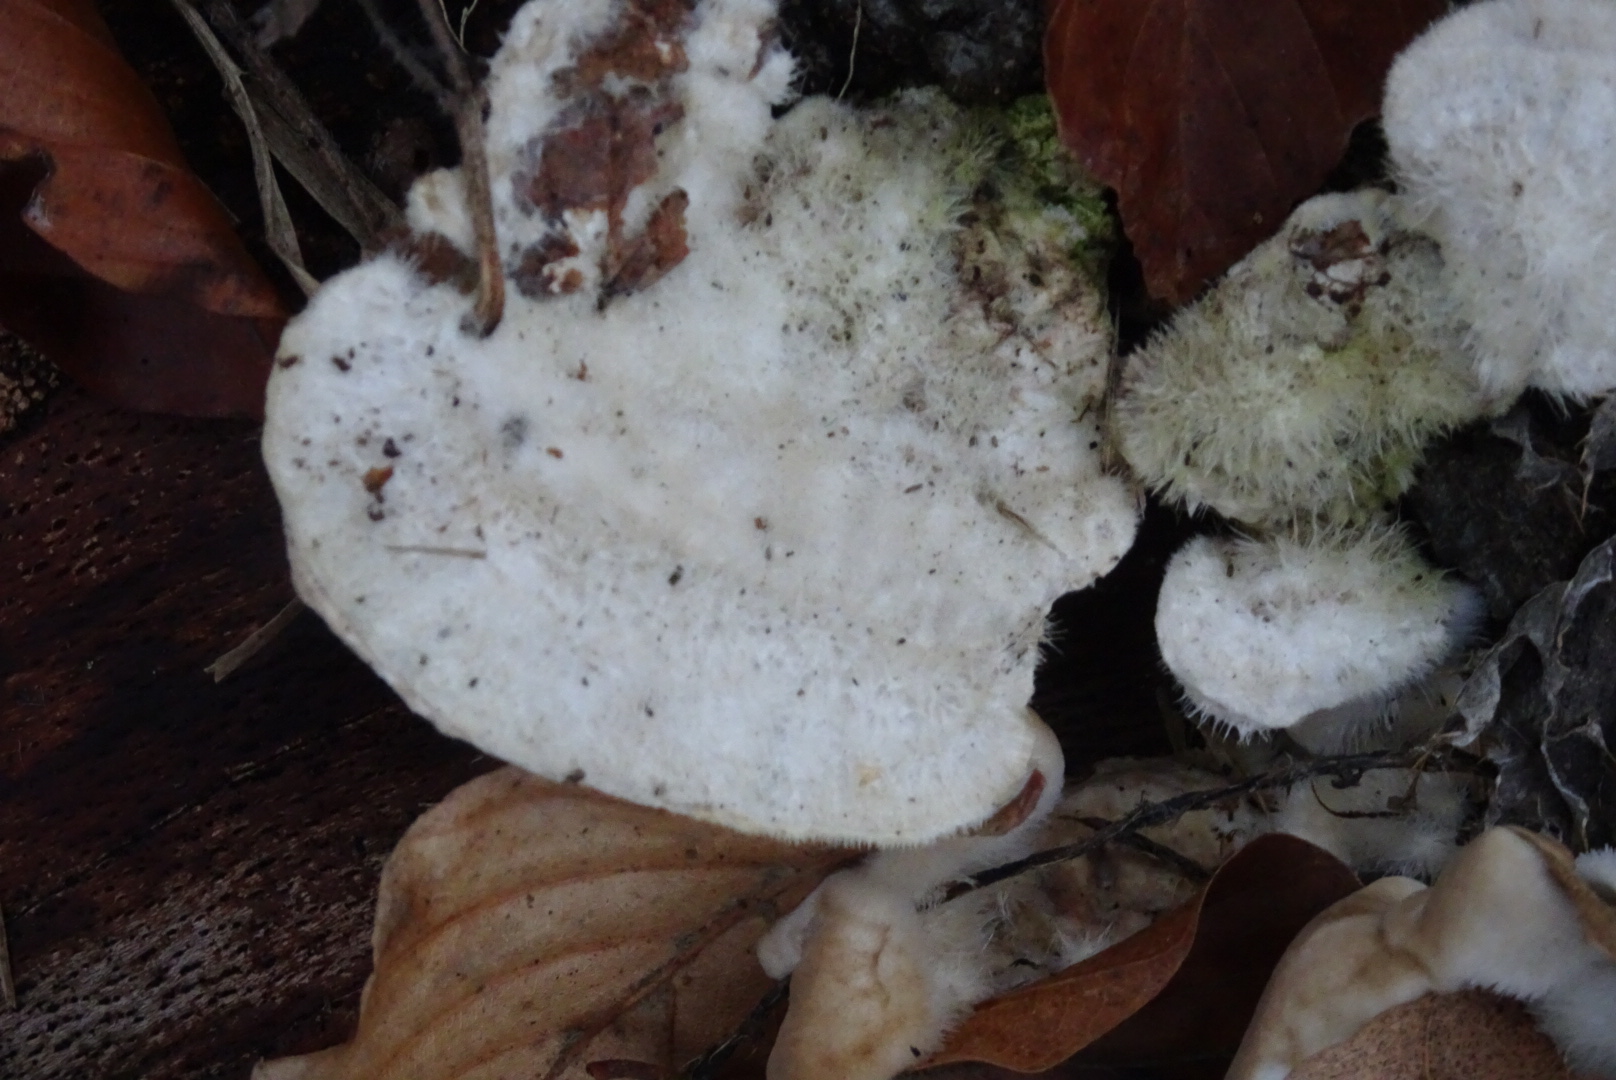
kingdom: Fungi
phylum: Basidiomycota
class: Agaricomycetes
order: Polyporales
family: Polyporaceae
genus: Trametes
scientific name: Trametes hirsuta
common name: håret læderporesvamp
